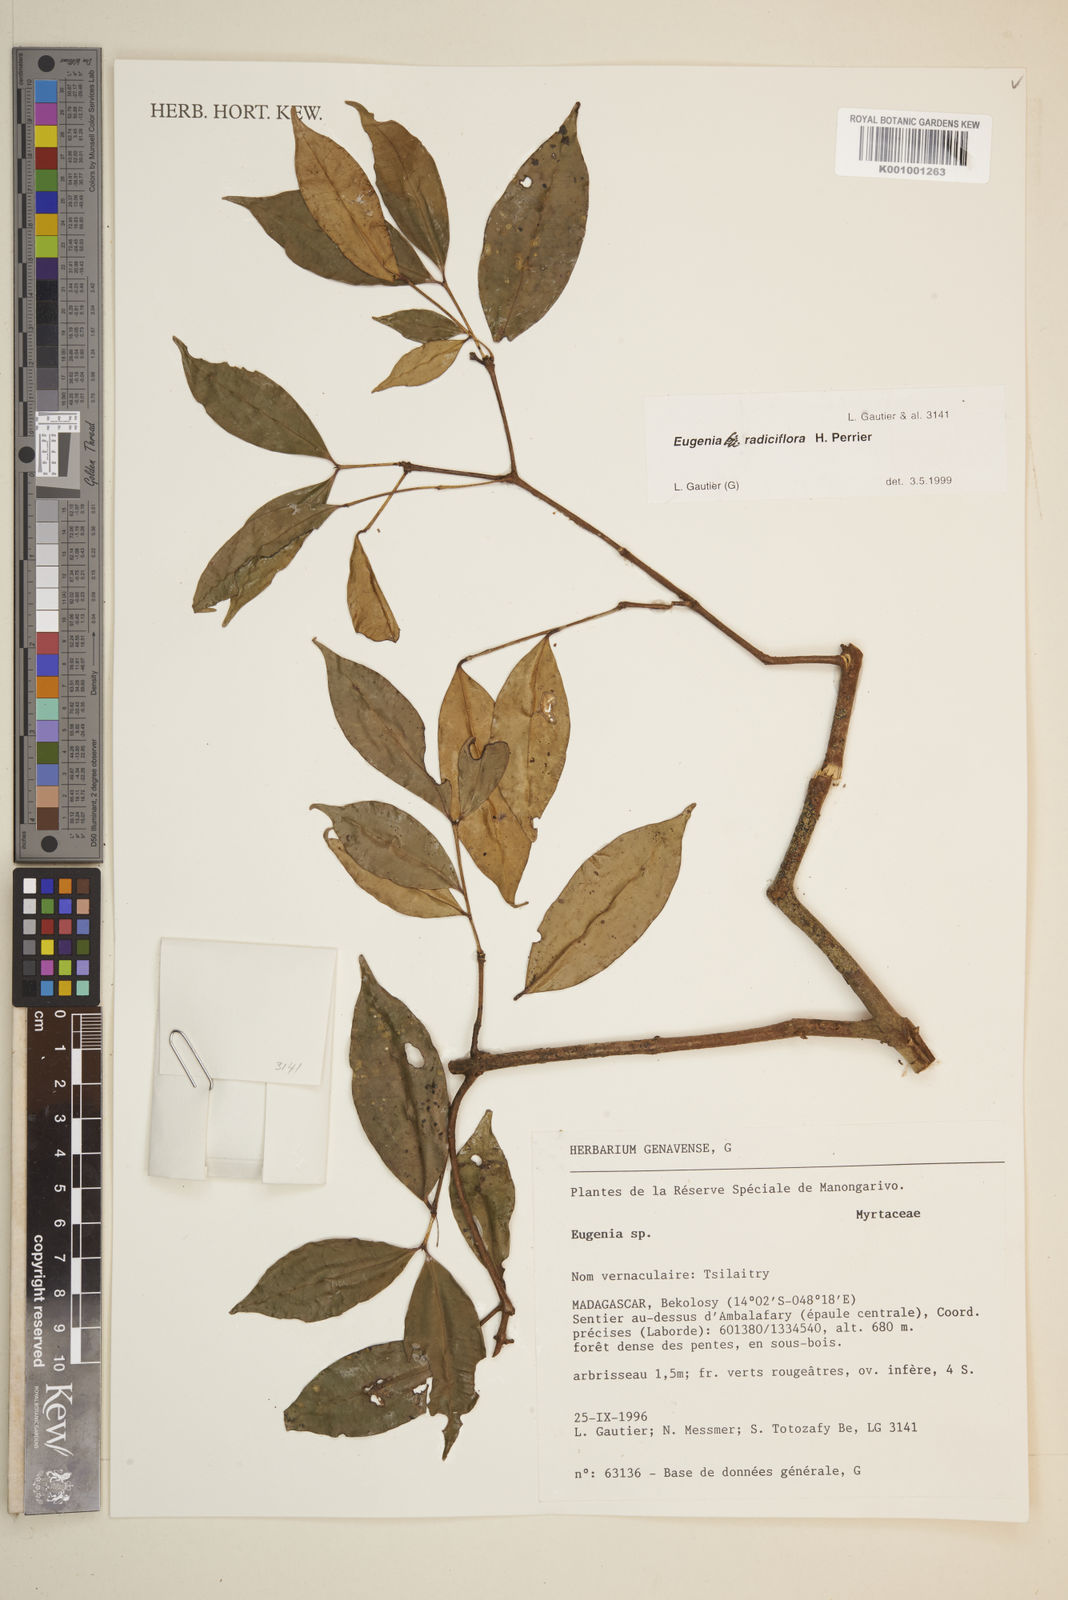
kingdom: Plantae
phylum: Tracheophyta
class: Magnoliopsida
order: Myrtales
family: Myrtaceae
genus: Eugenia
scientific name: Eugenia radiciflora
